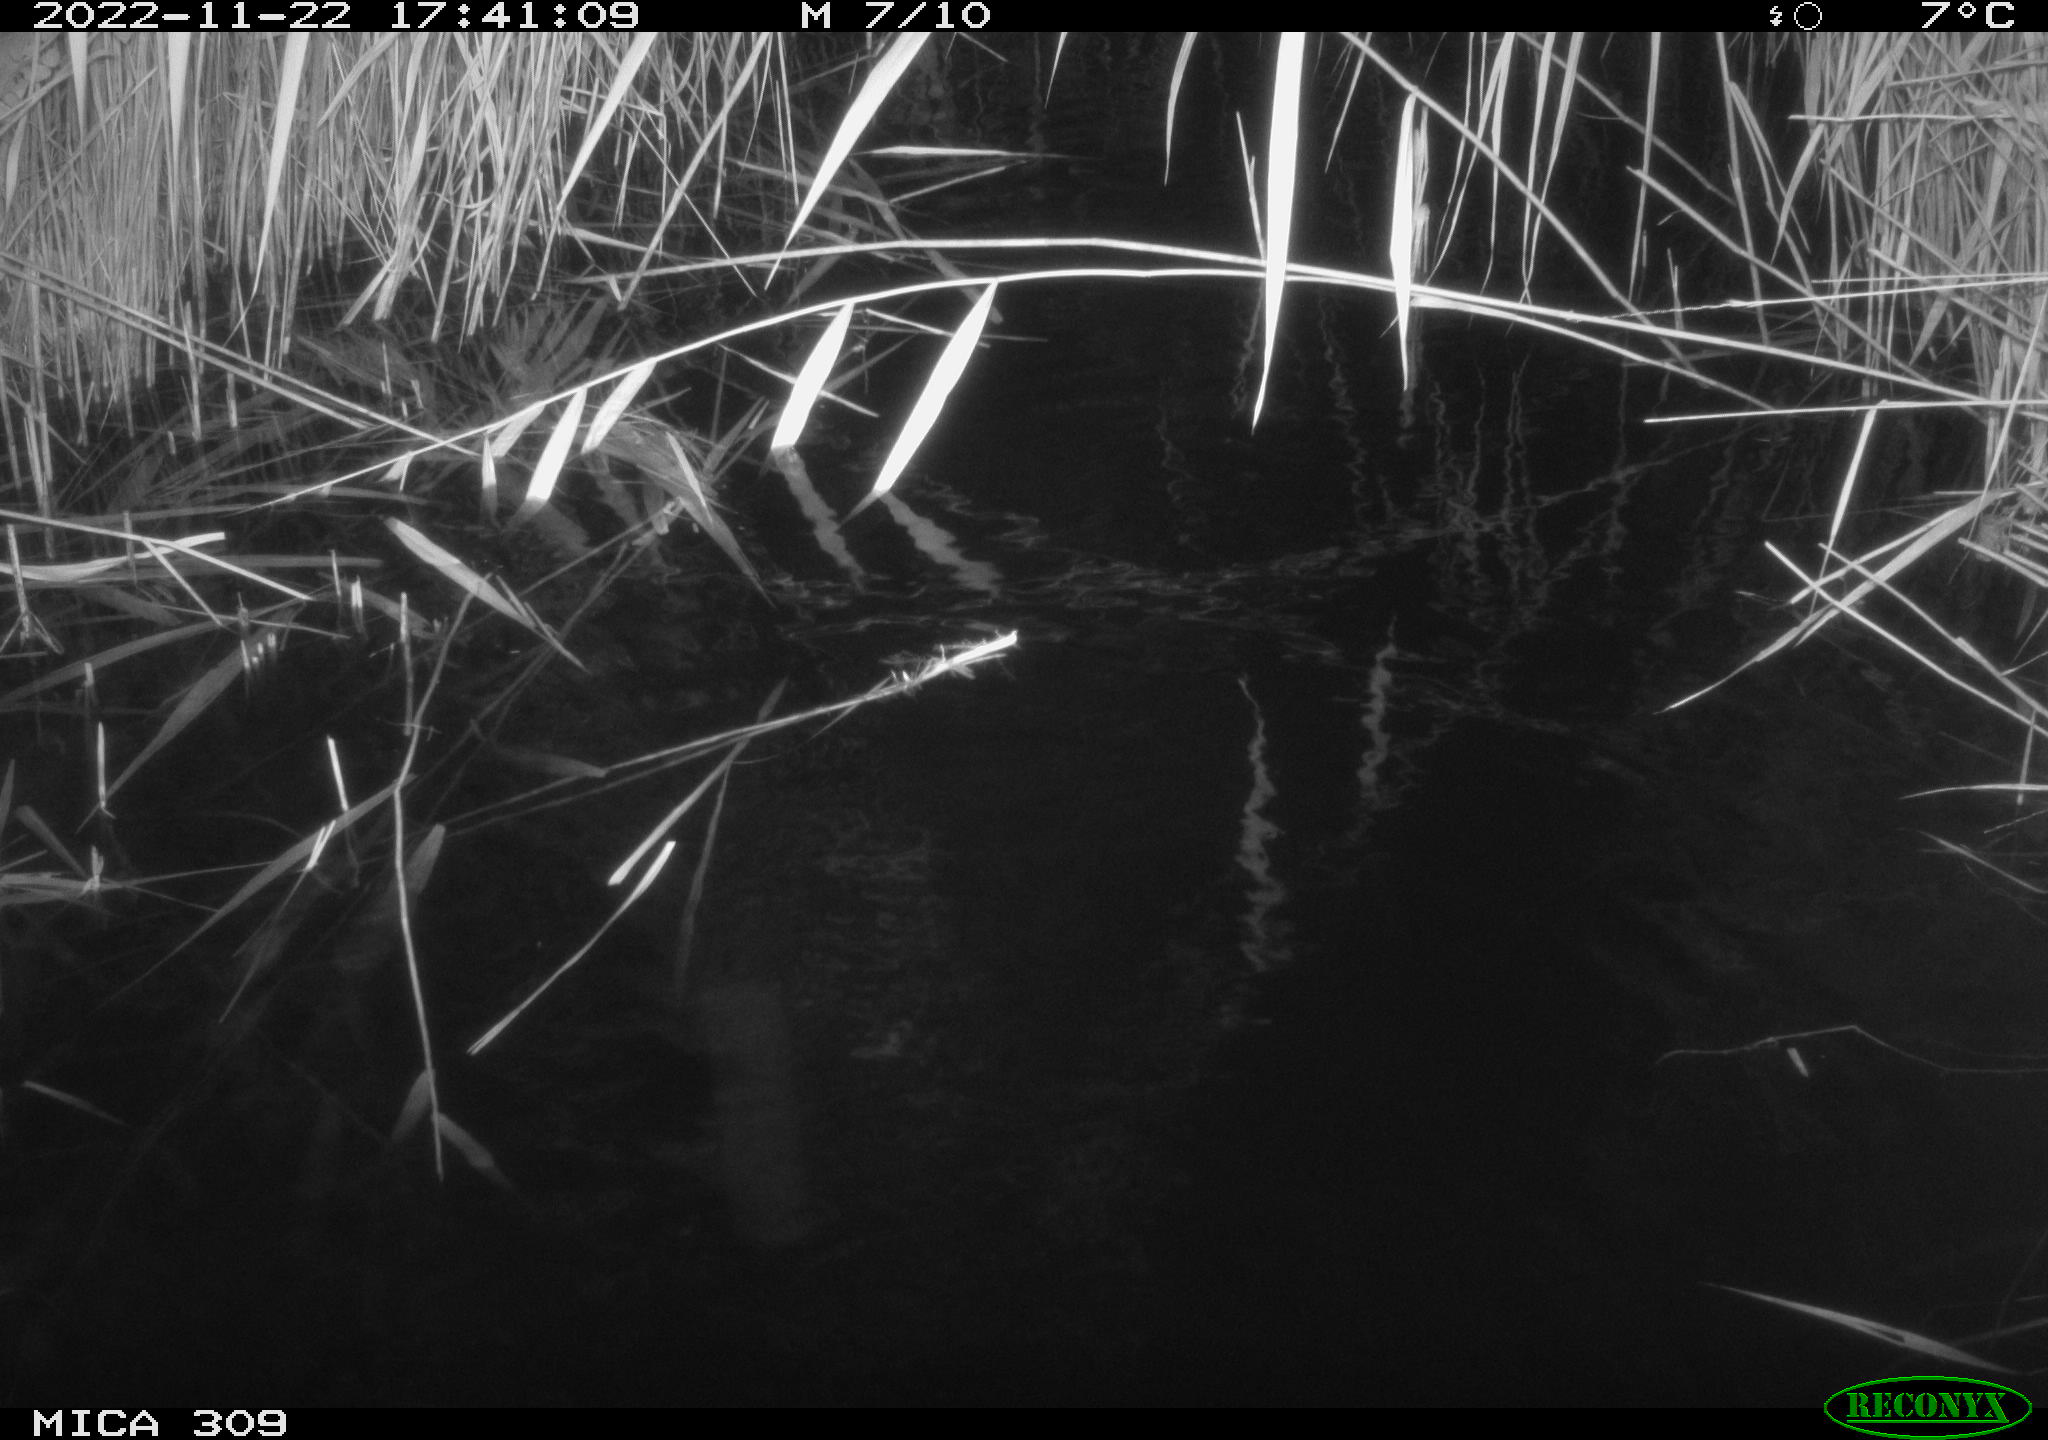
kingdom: Animalia
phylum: Chordata
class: Mammalia
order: Rodentia
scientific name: Rodentia
